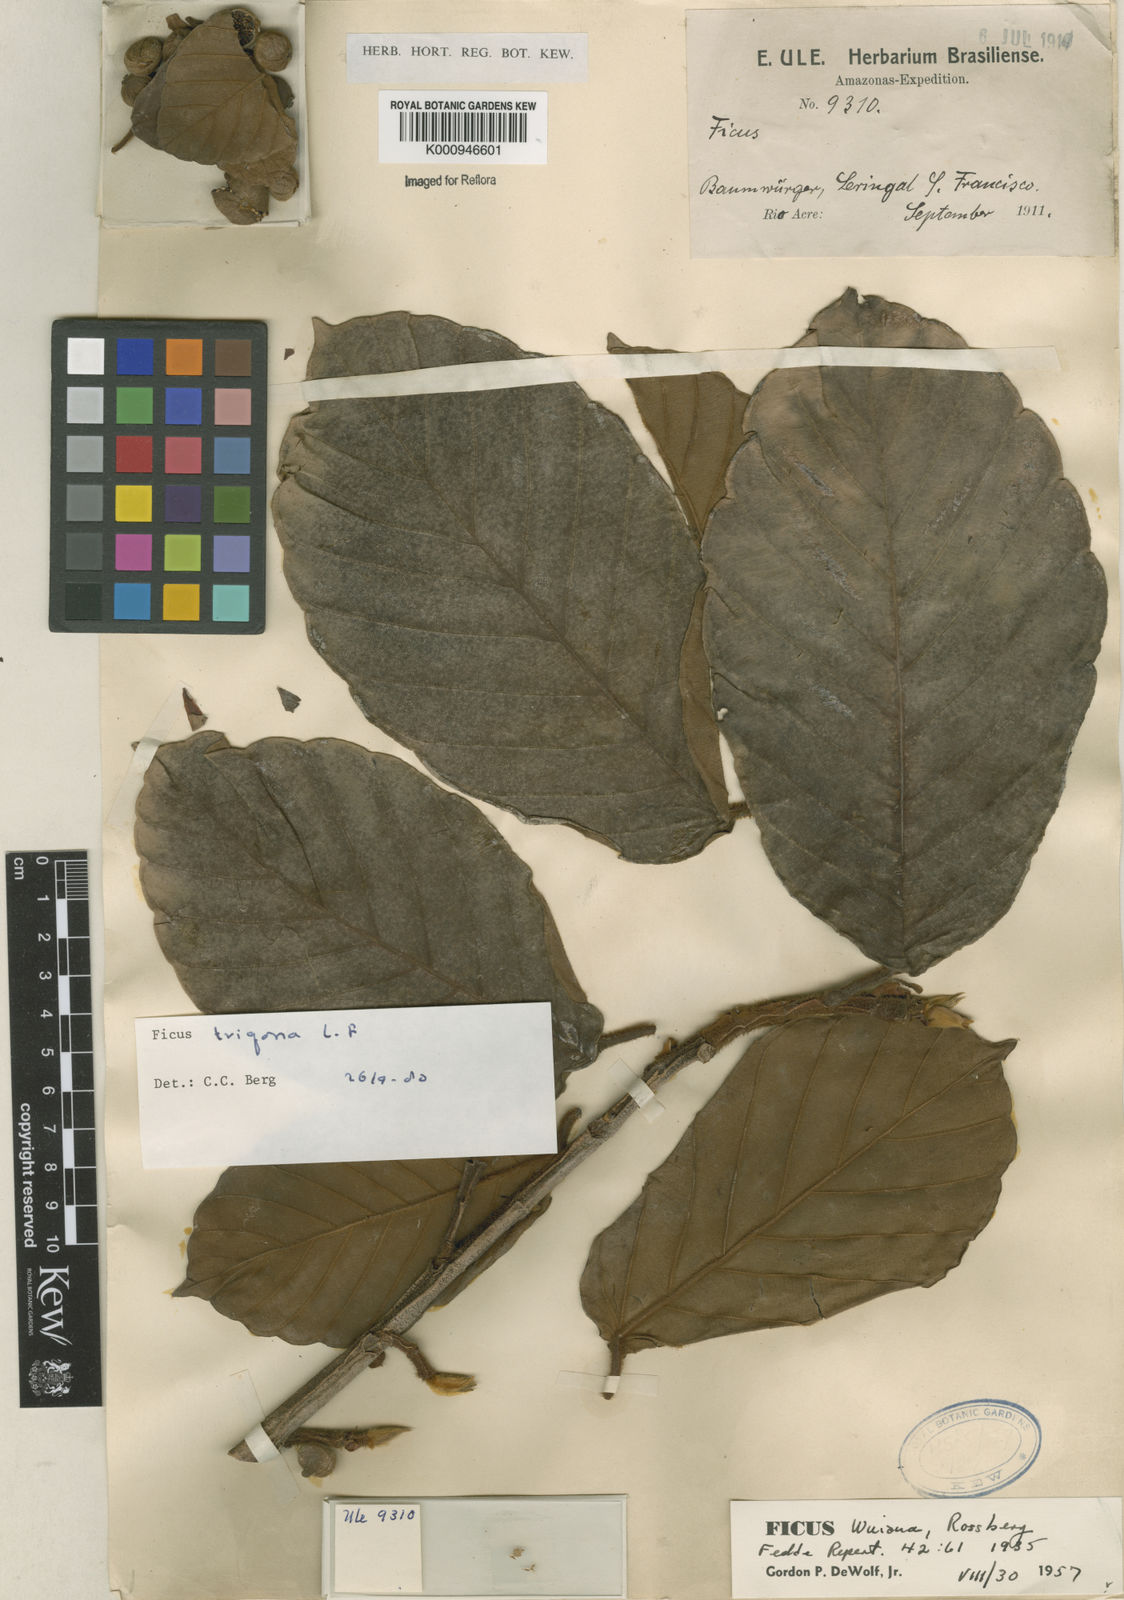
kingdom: Plantae
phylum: Tracheophyta
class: Magnoliopsida
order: Rosales
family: Moraceae
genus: Ficus
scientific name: Ficus trigona
